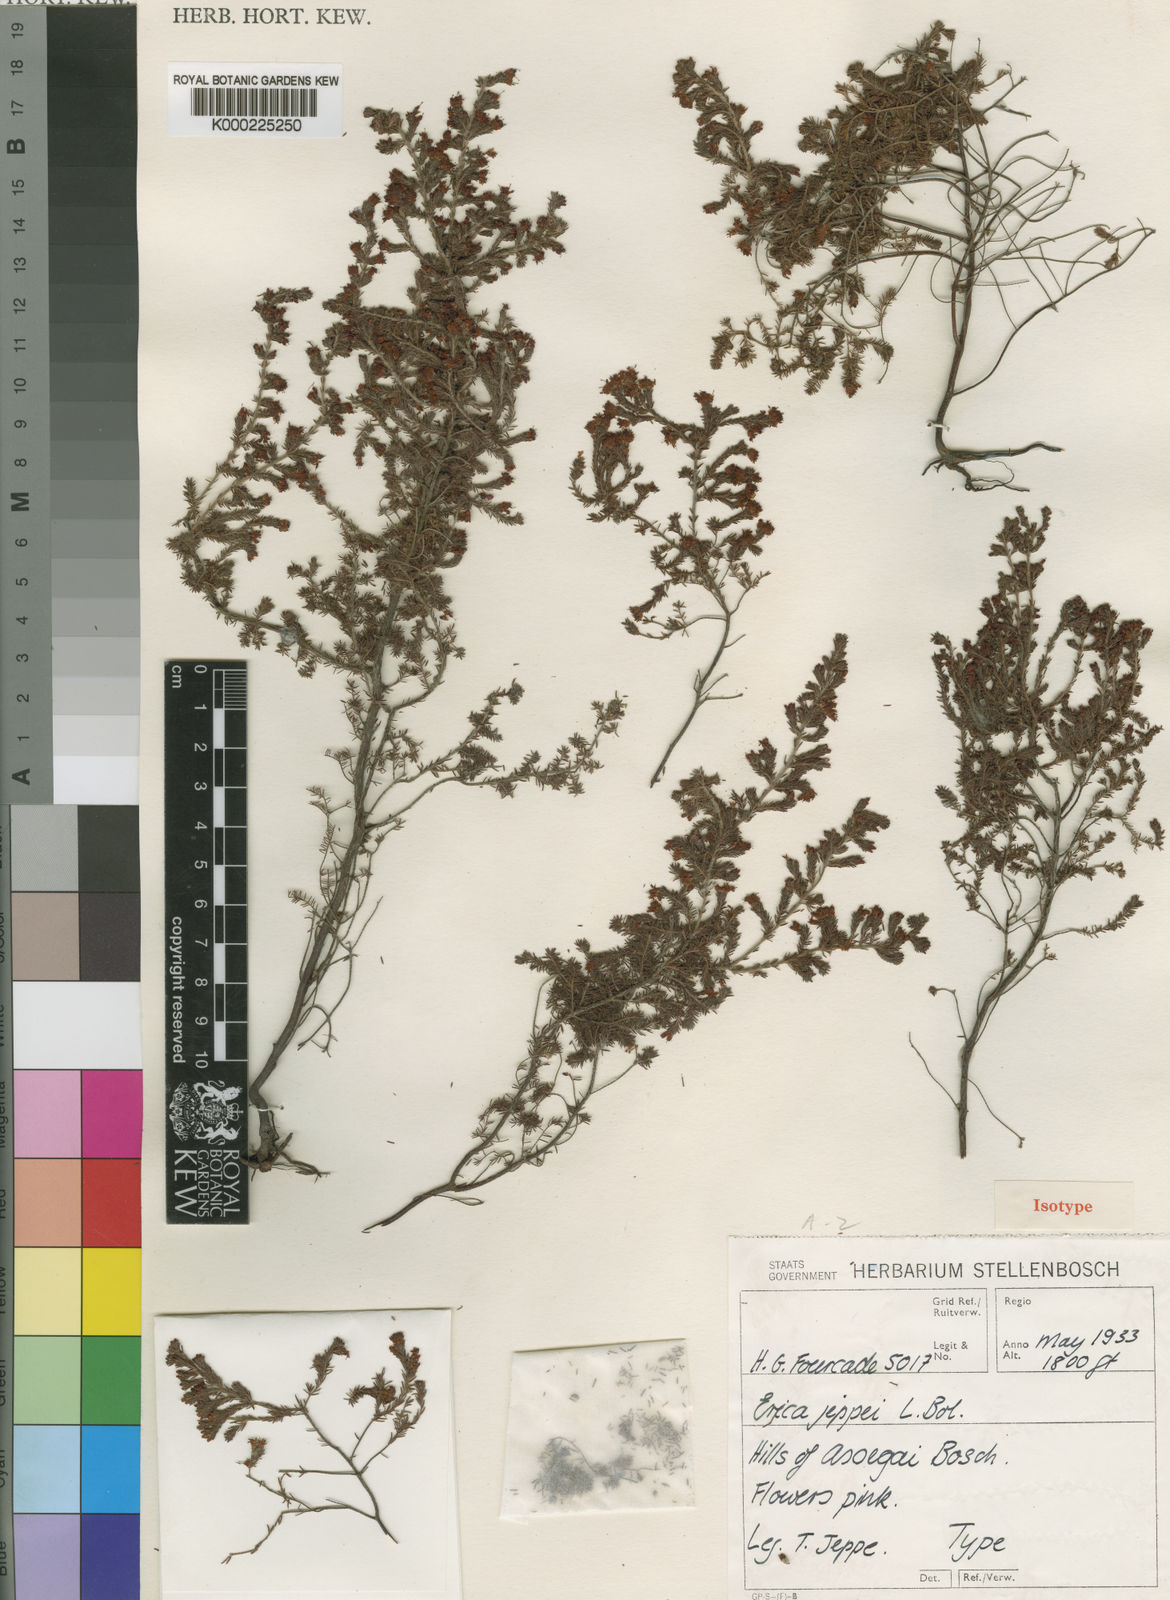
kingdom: Plantae
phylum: Tracheophyta
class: Magnoliopsida
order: Ericales
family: Ericaceae
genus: Erica
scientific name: Erica harveyana
